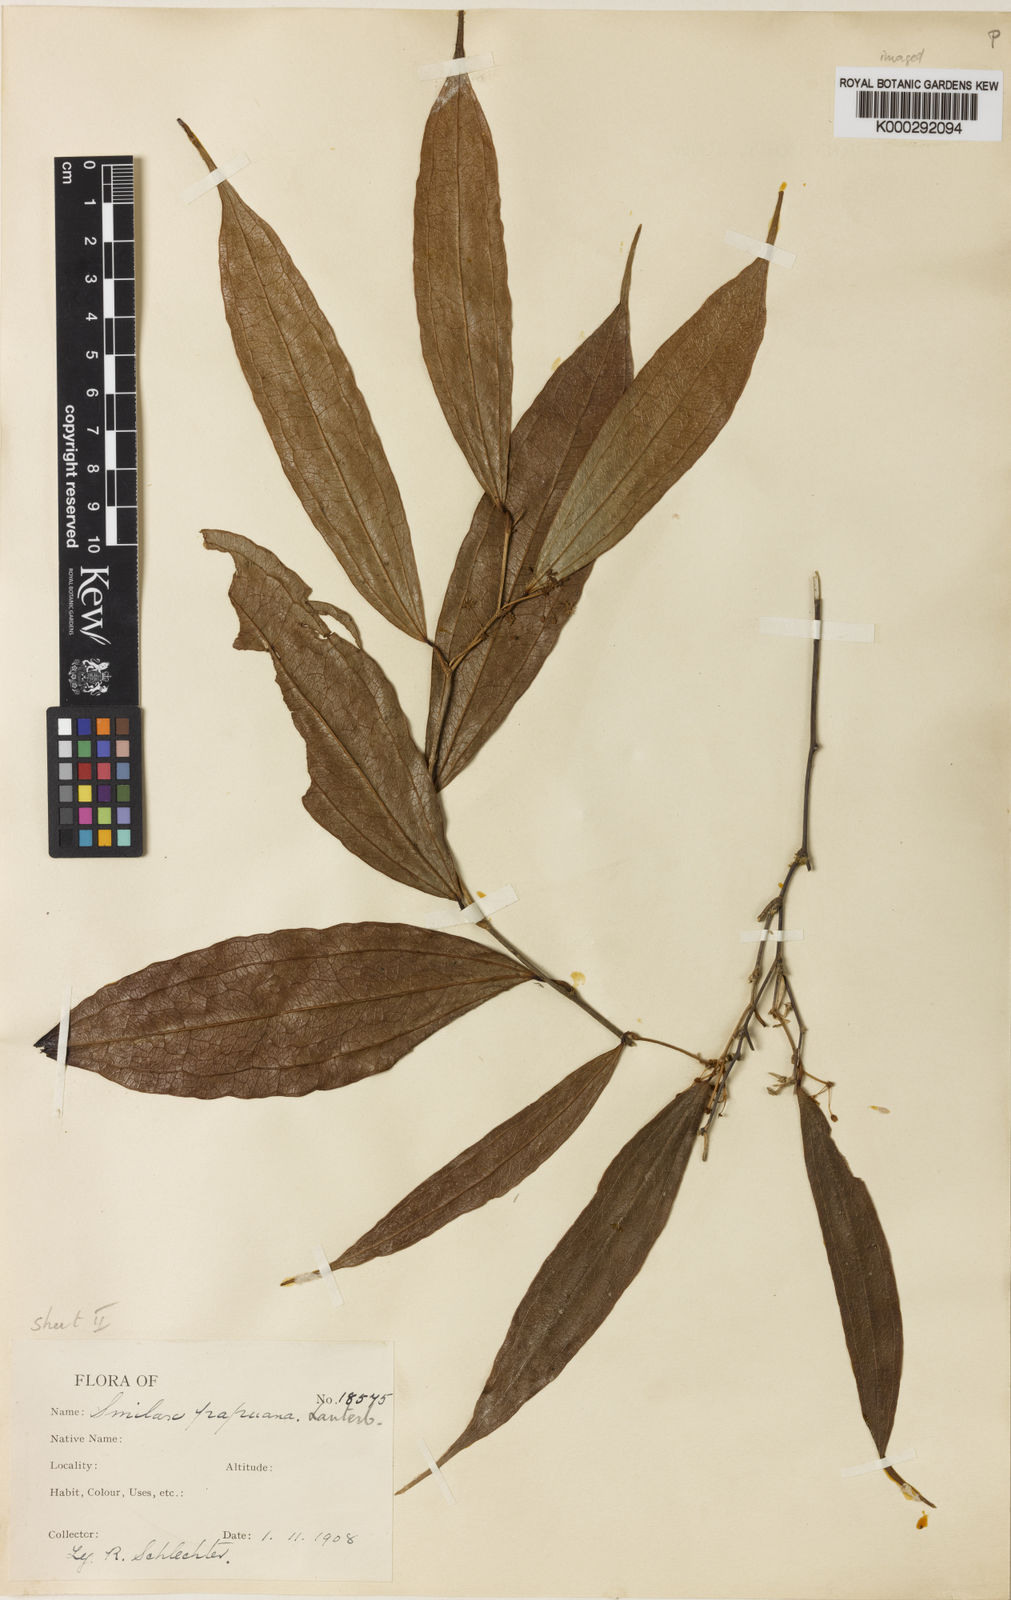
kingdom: Plantae
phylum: Tracheophyta
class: Liliopsida
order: Liliales
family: Smilacaceae
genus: Smilax
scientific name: Smilax papuana
